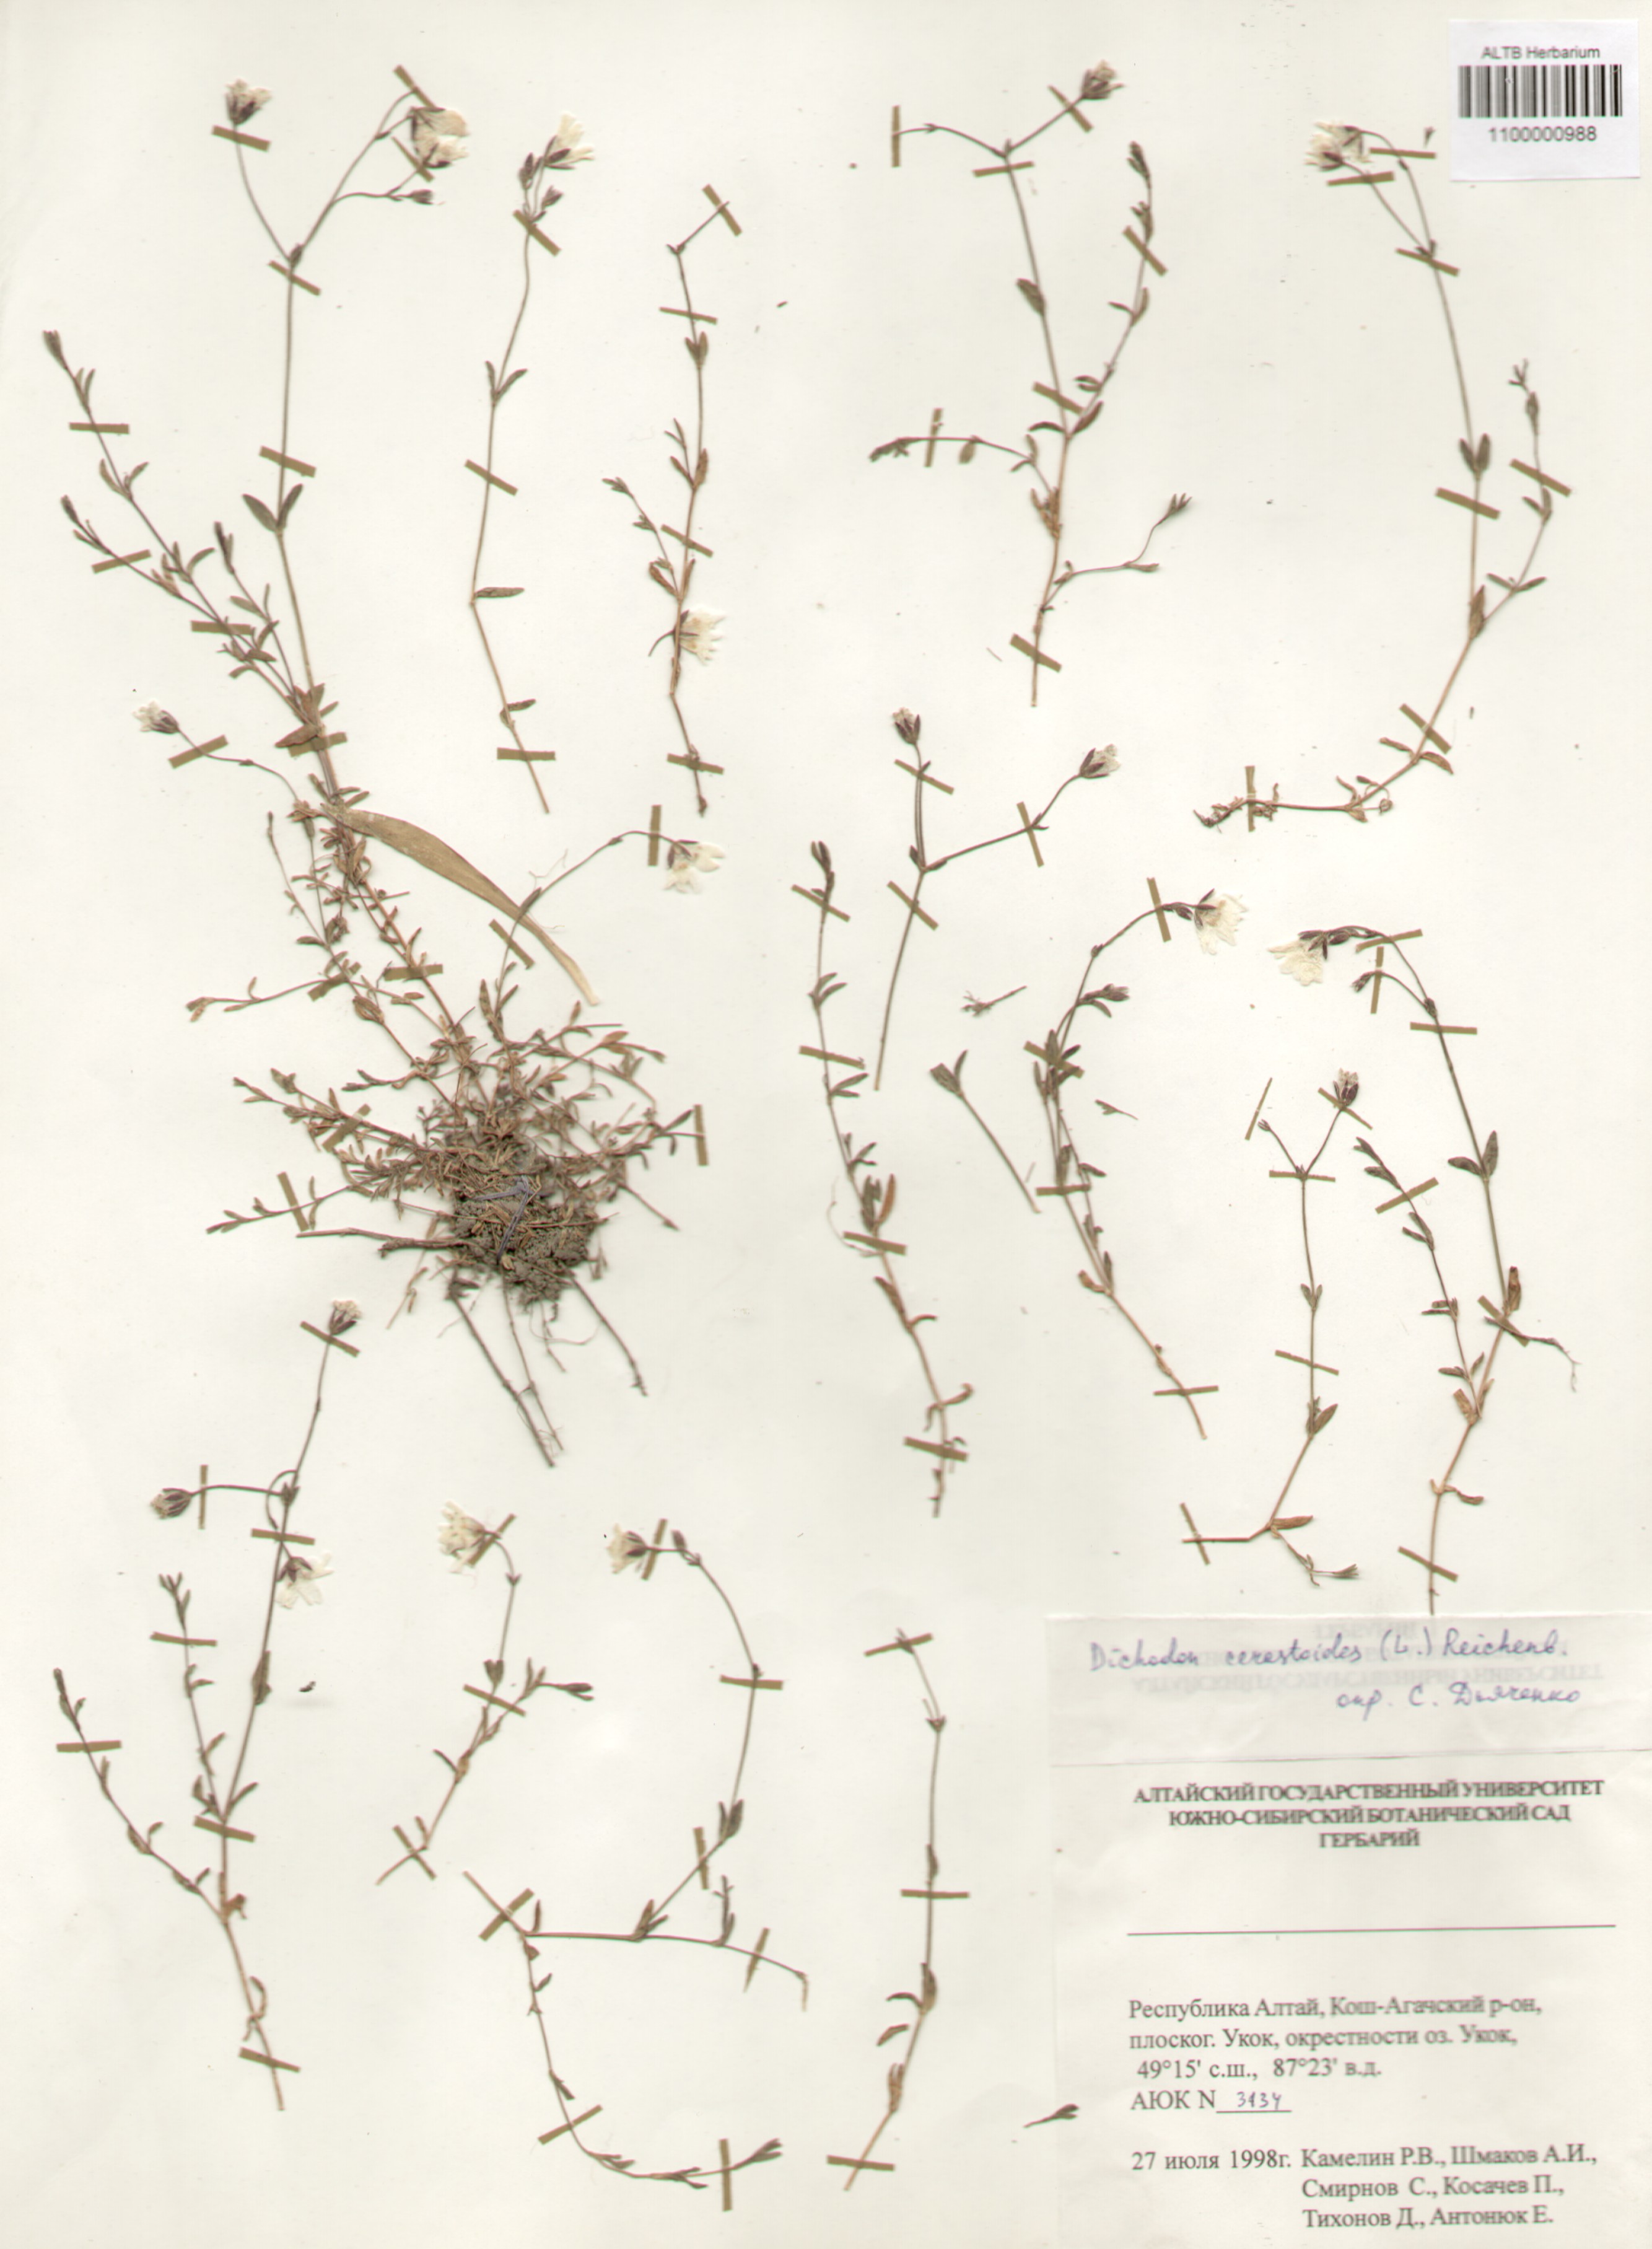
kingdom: Plantae
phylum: Tracheophyta
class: Magnoliopsida
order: Caryophyllales
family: Caryophyllaceae
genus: Dichodon
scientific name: Dichodon cerastoides
